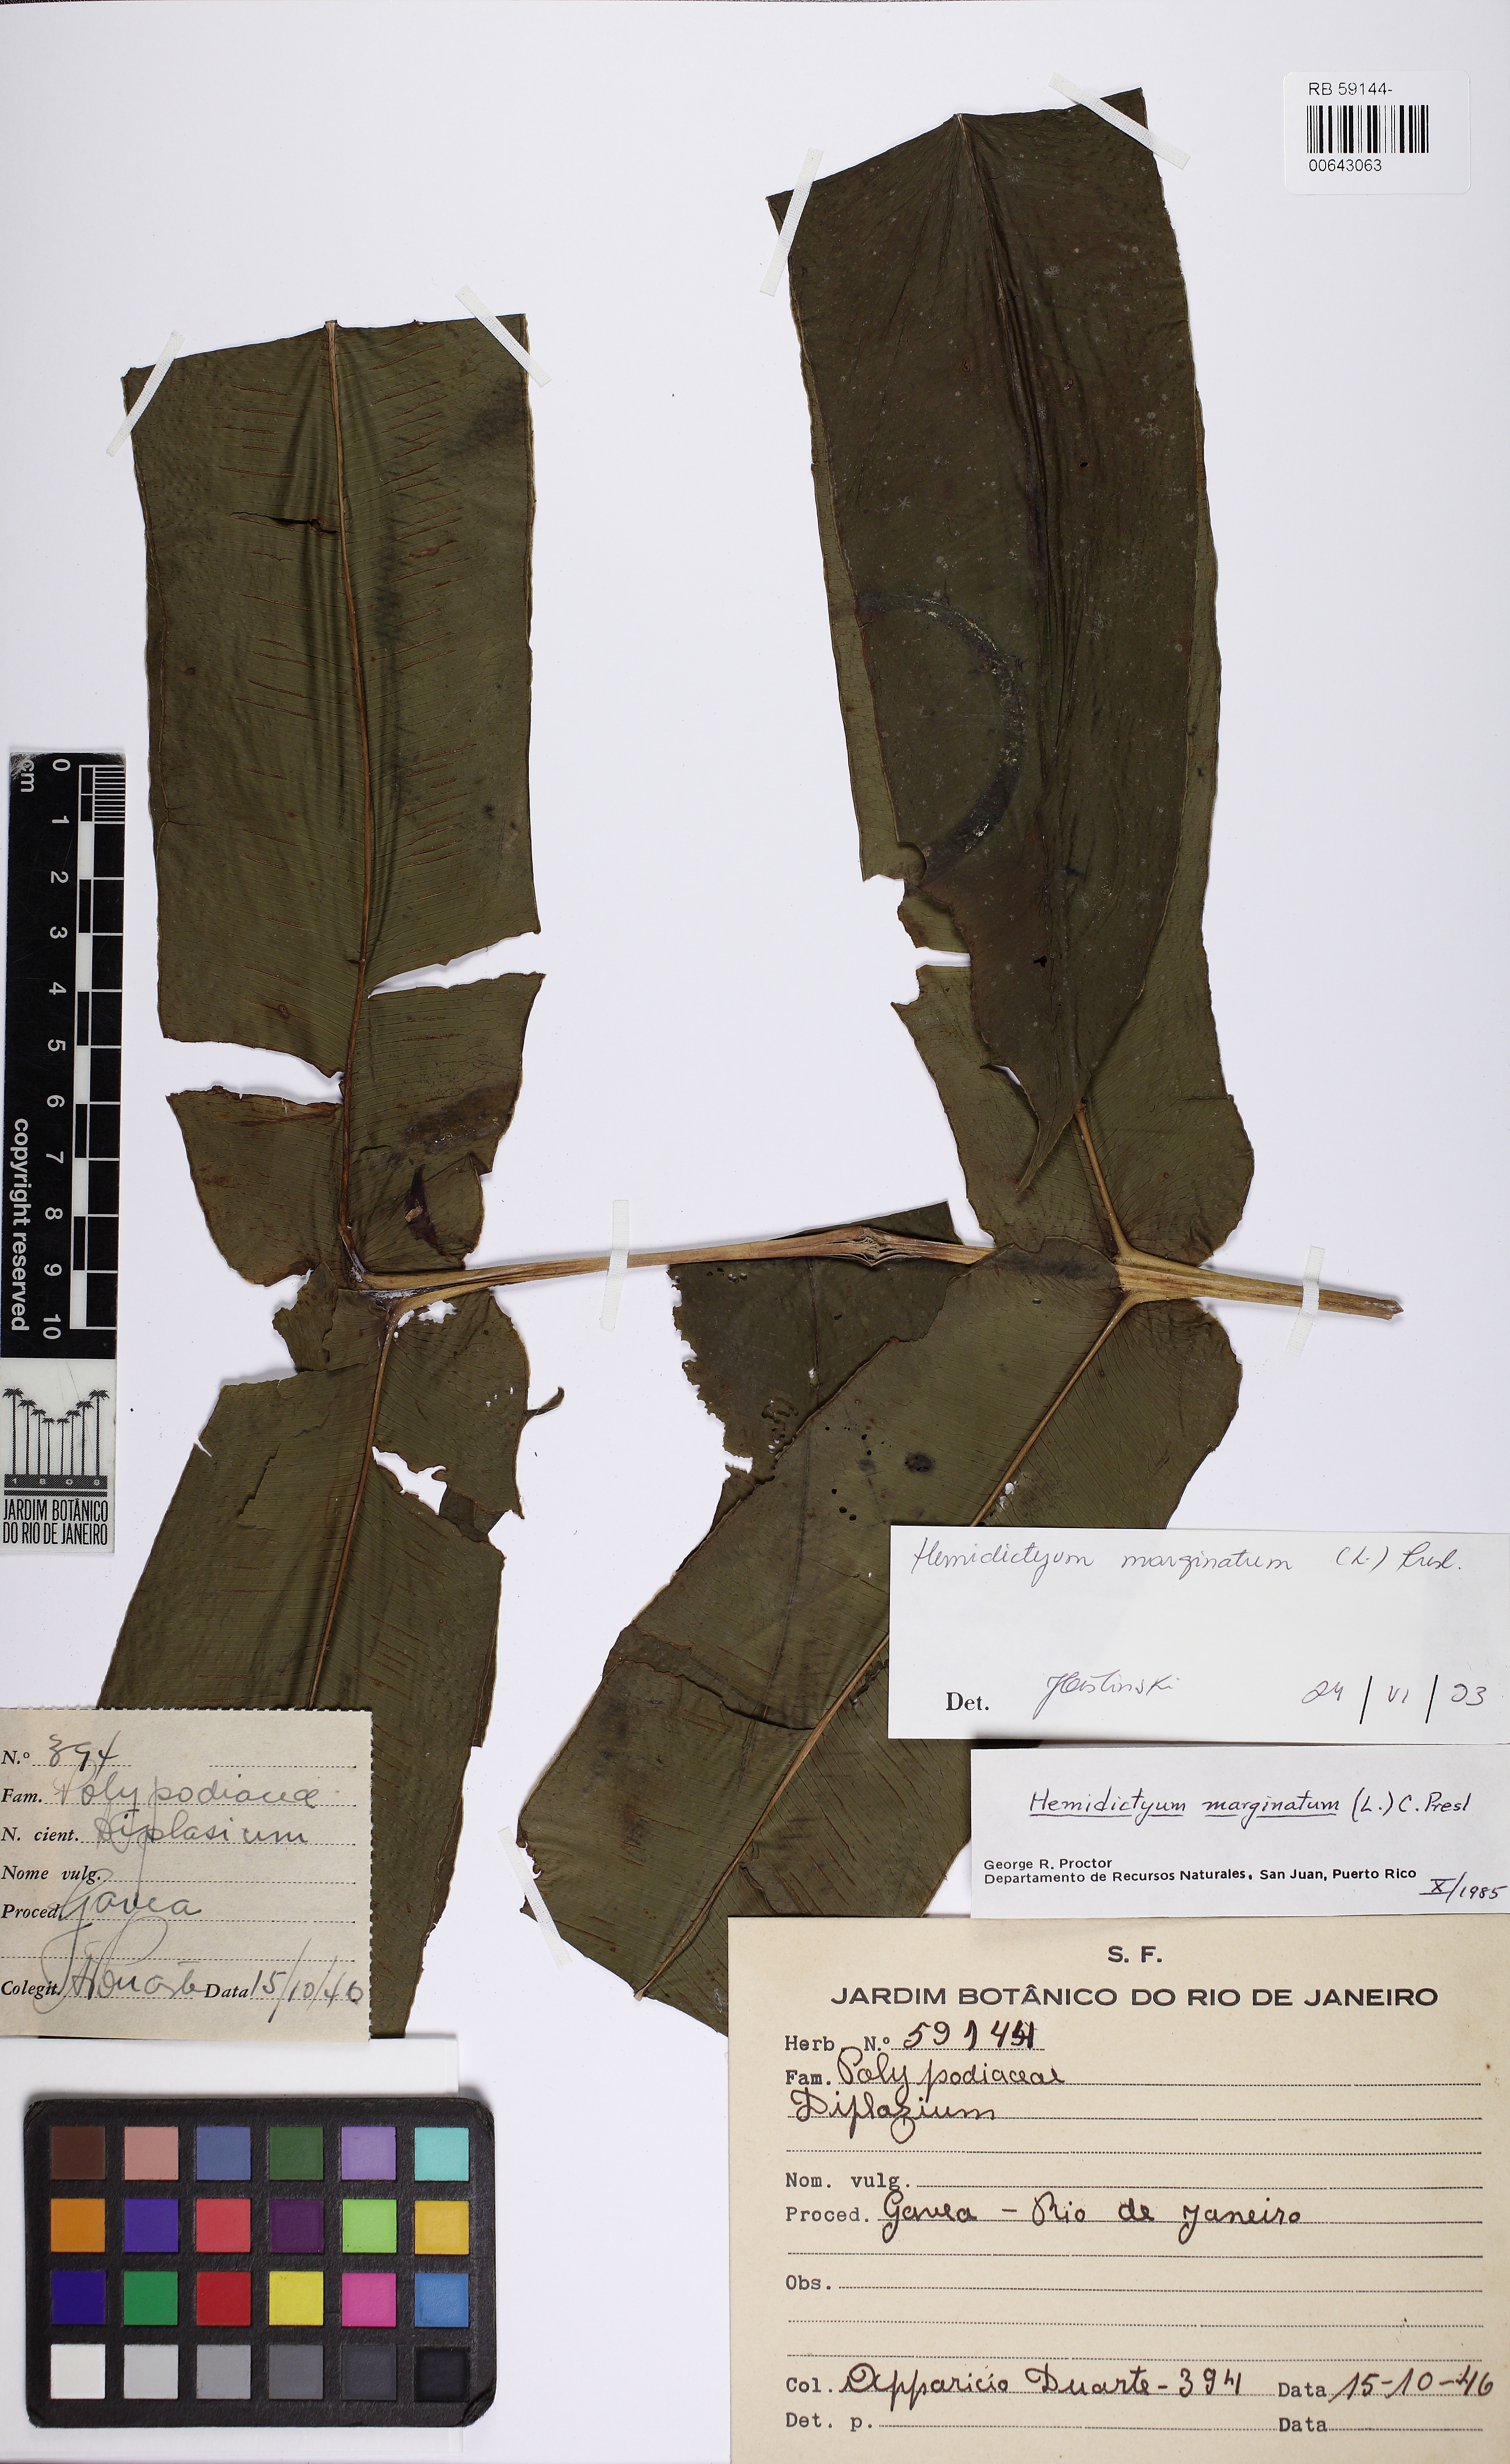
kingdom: Plantae
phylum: Tracheophyta
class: Polypodiopsida
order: Polypodiales
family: Hemidictyaceae
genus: Hemidictyum
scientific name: Hemidictyum marginatum
